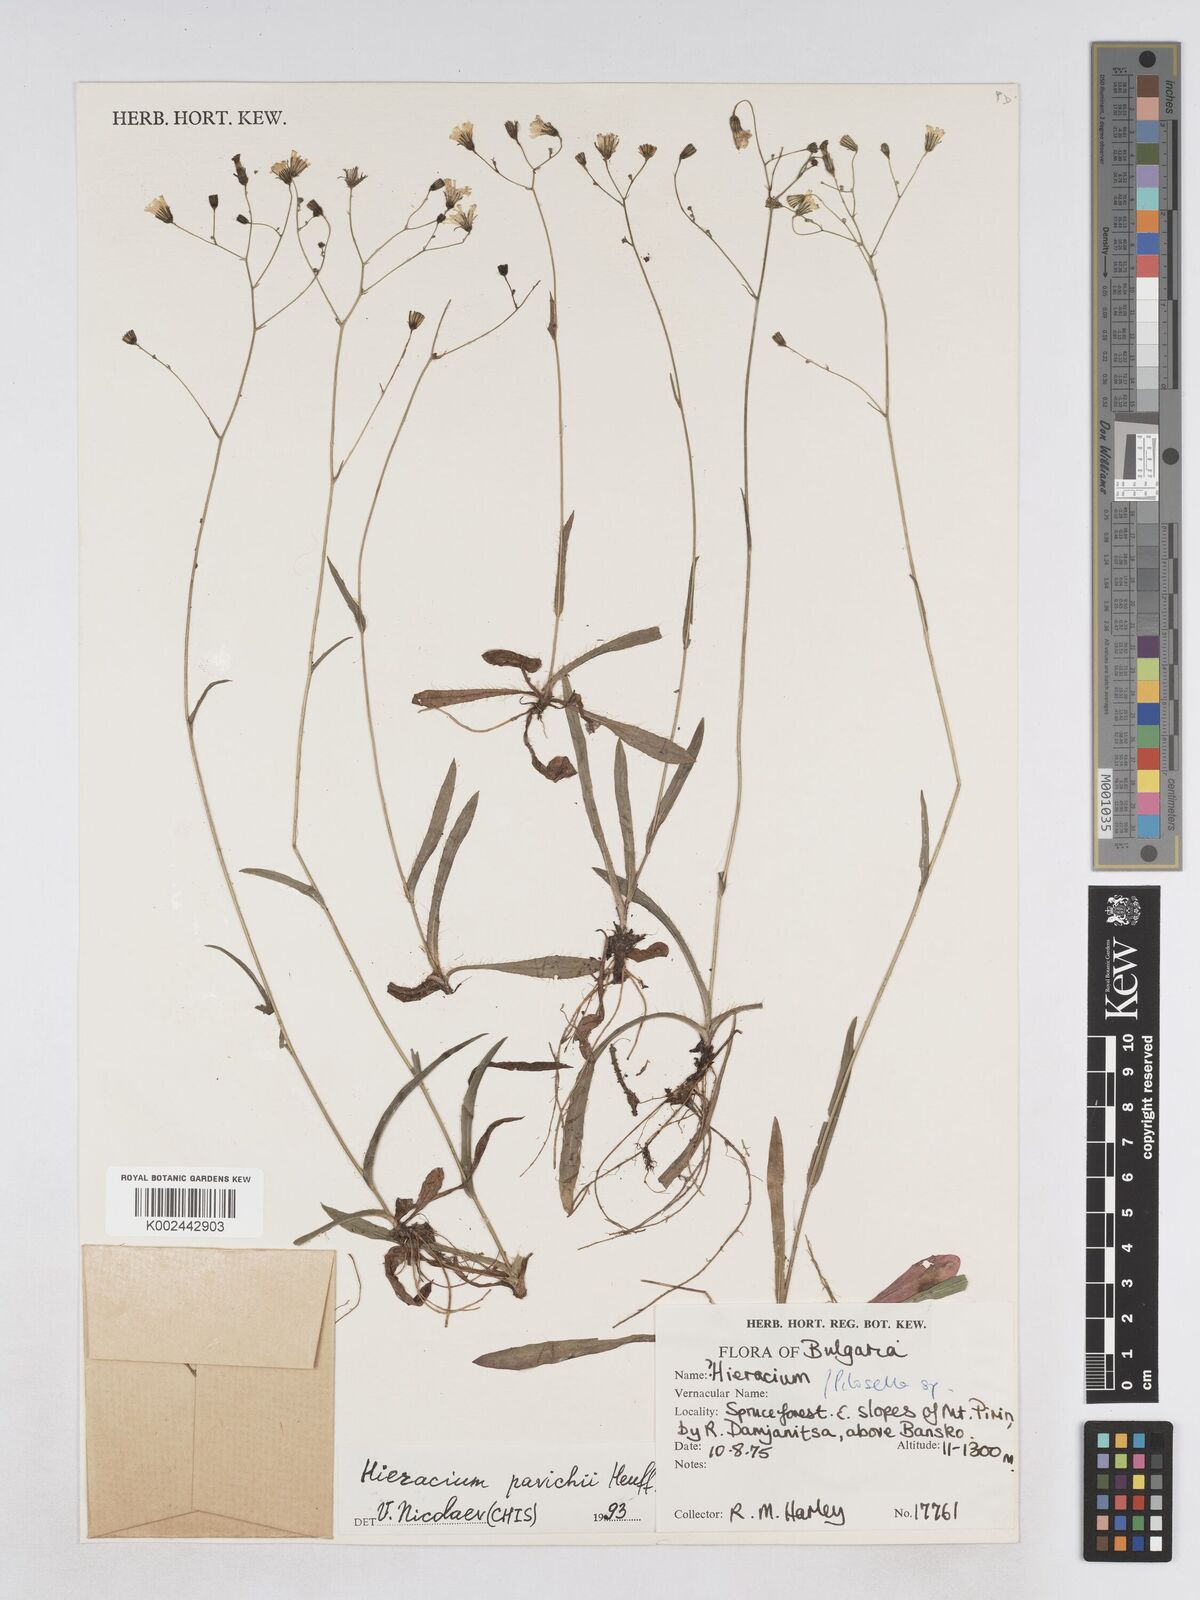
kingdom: Plantae
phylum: Tracheophyta
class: Magnoliopsida
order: Asterales
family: Asteraceae
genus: Pilosella
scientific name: Pilosella pavichii
